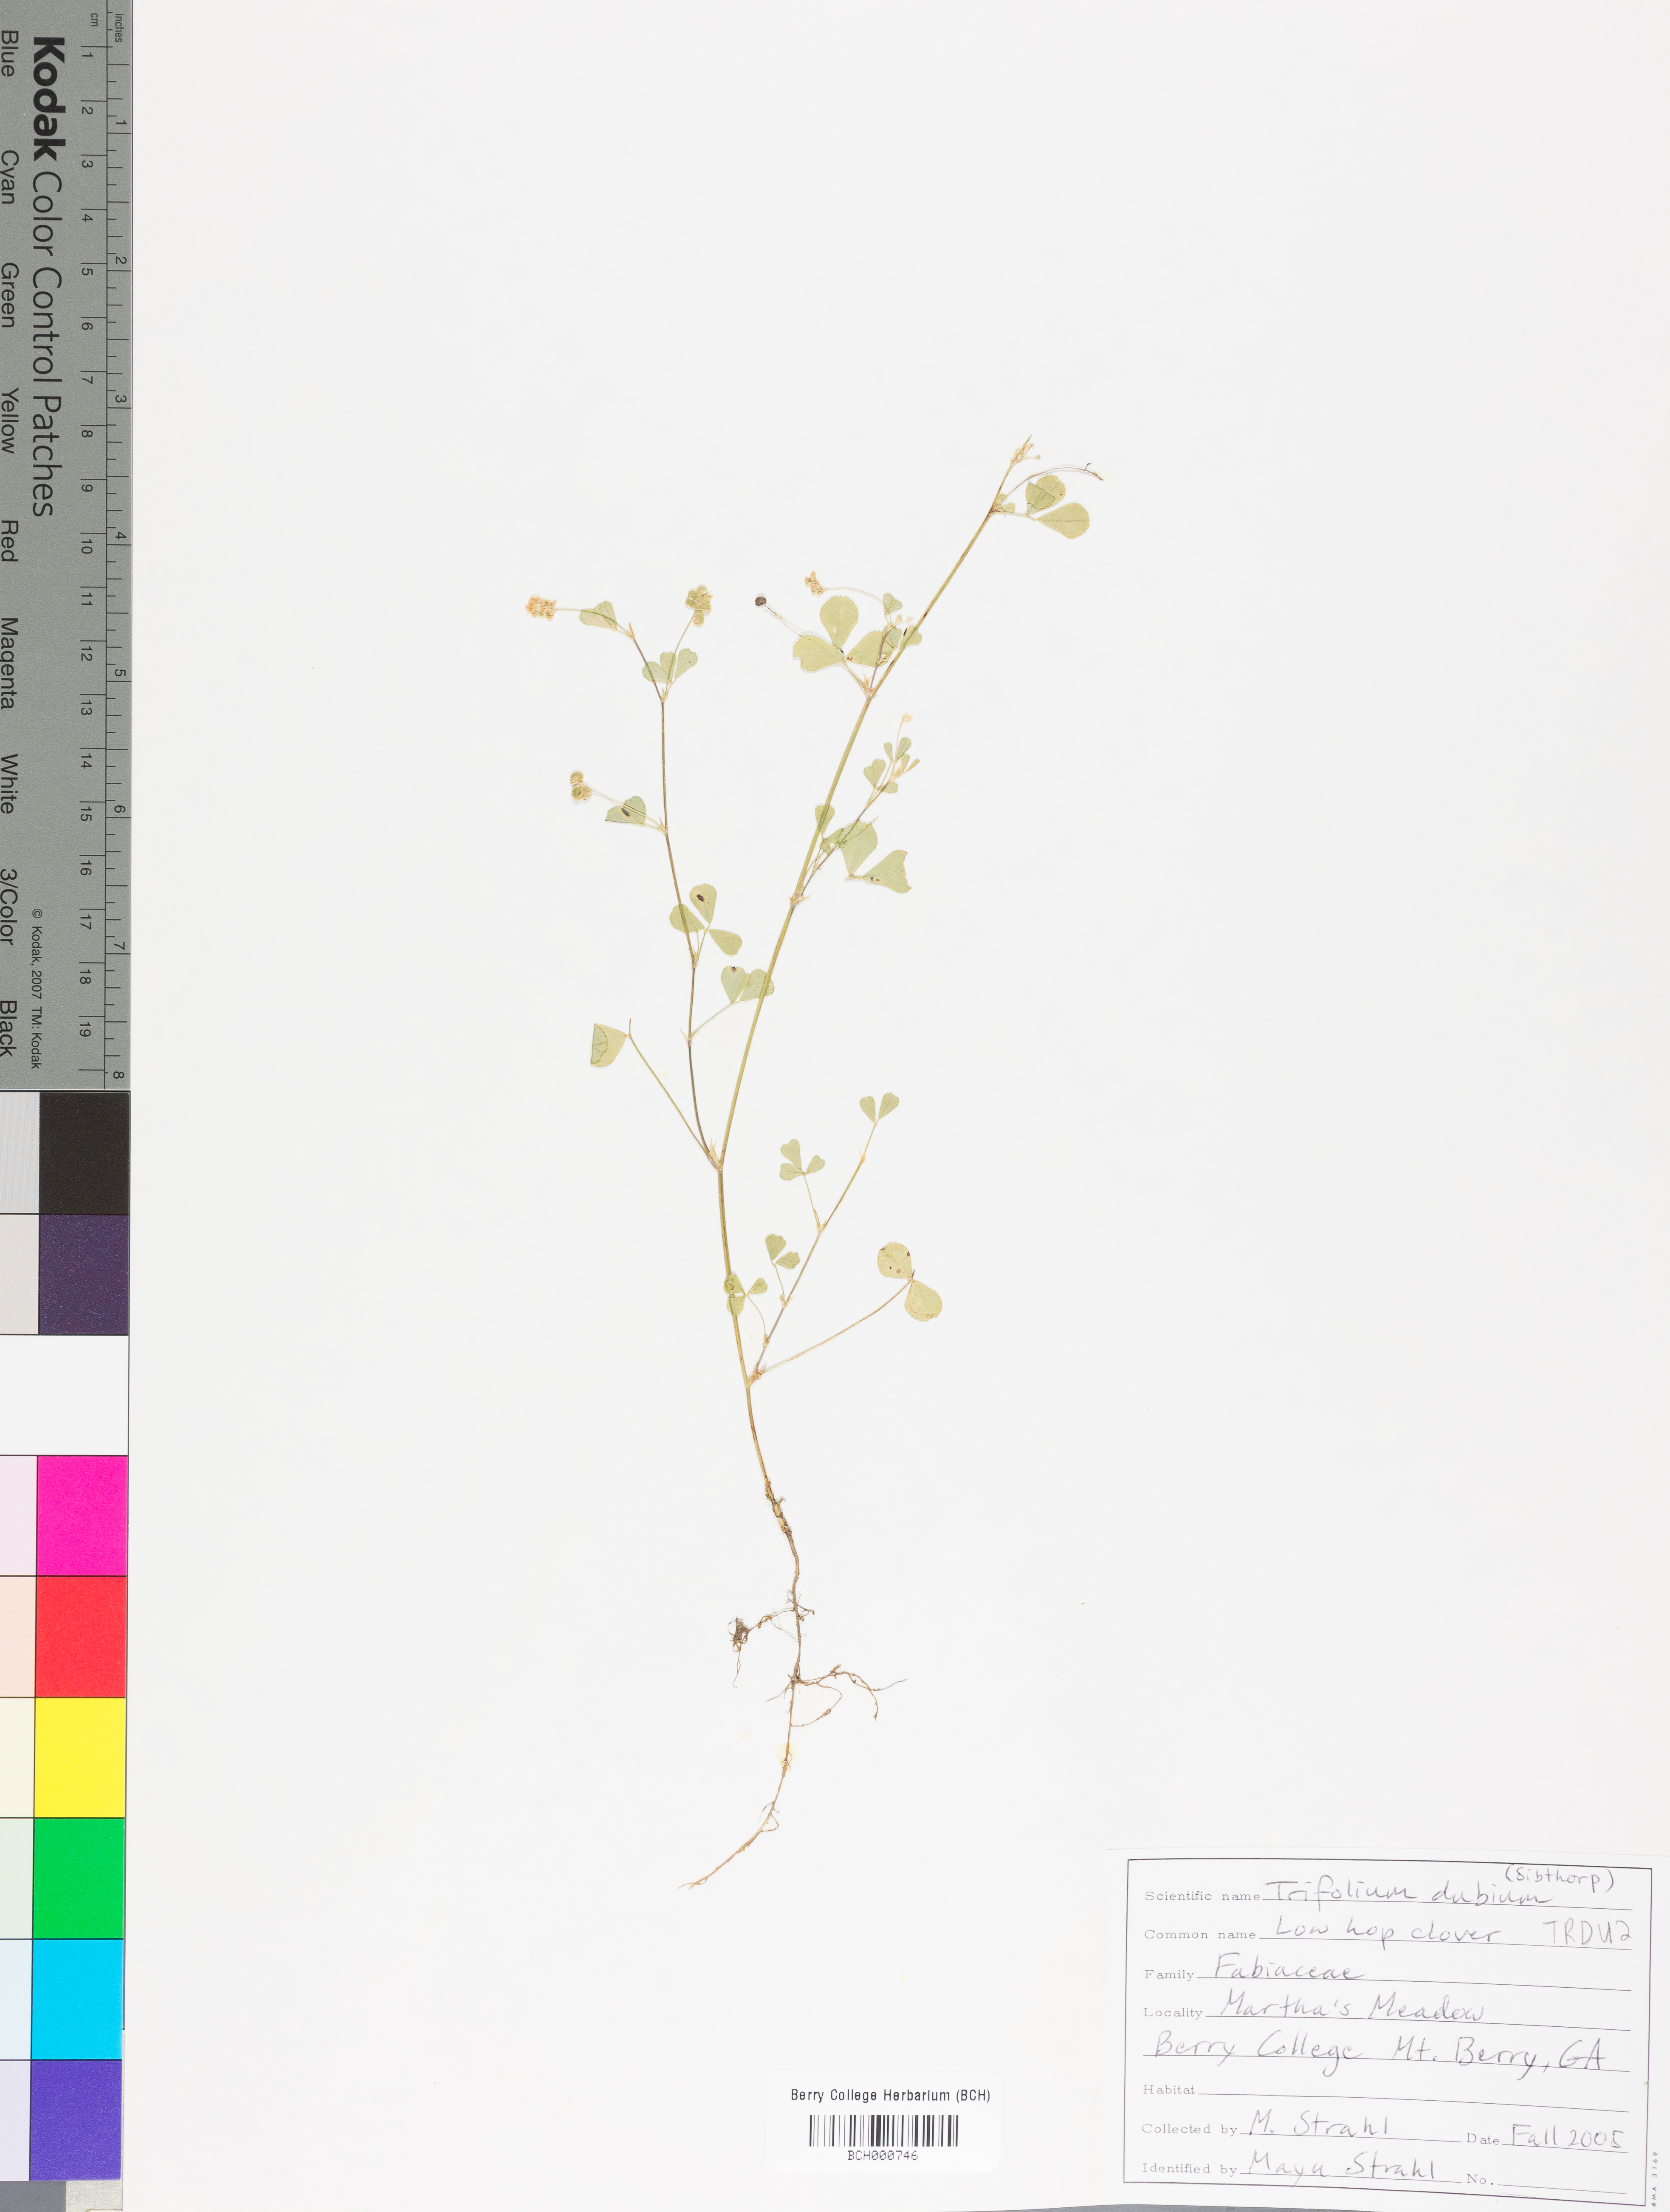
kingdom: Plantae
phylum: Tracheophyta
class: Magnoliopsida
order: Fabales
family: Fabaceae
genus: Trifolium
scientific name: Trifolium dubium
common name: Suckling clover
